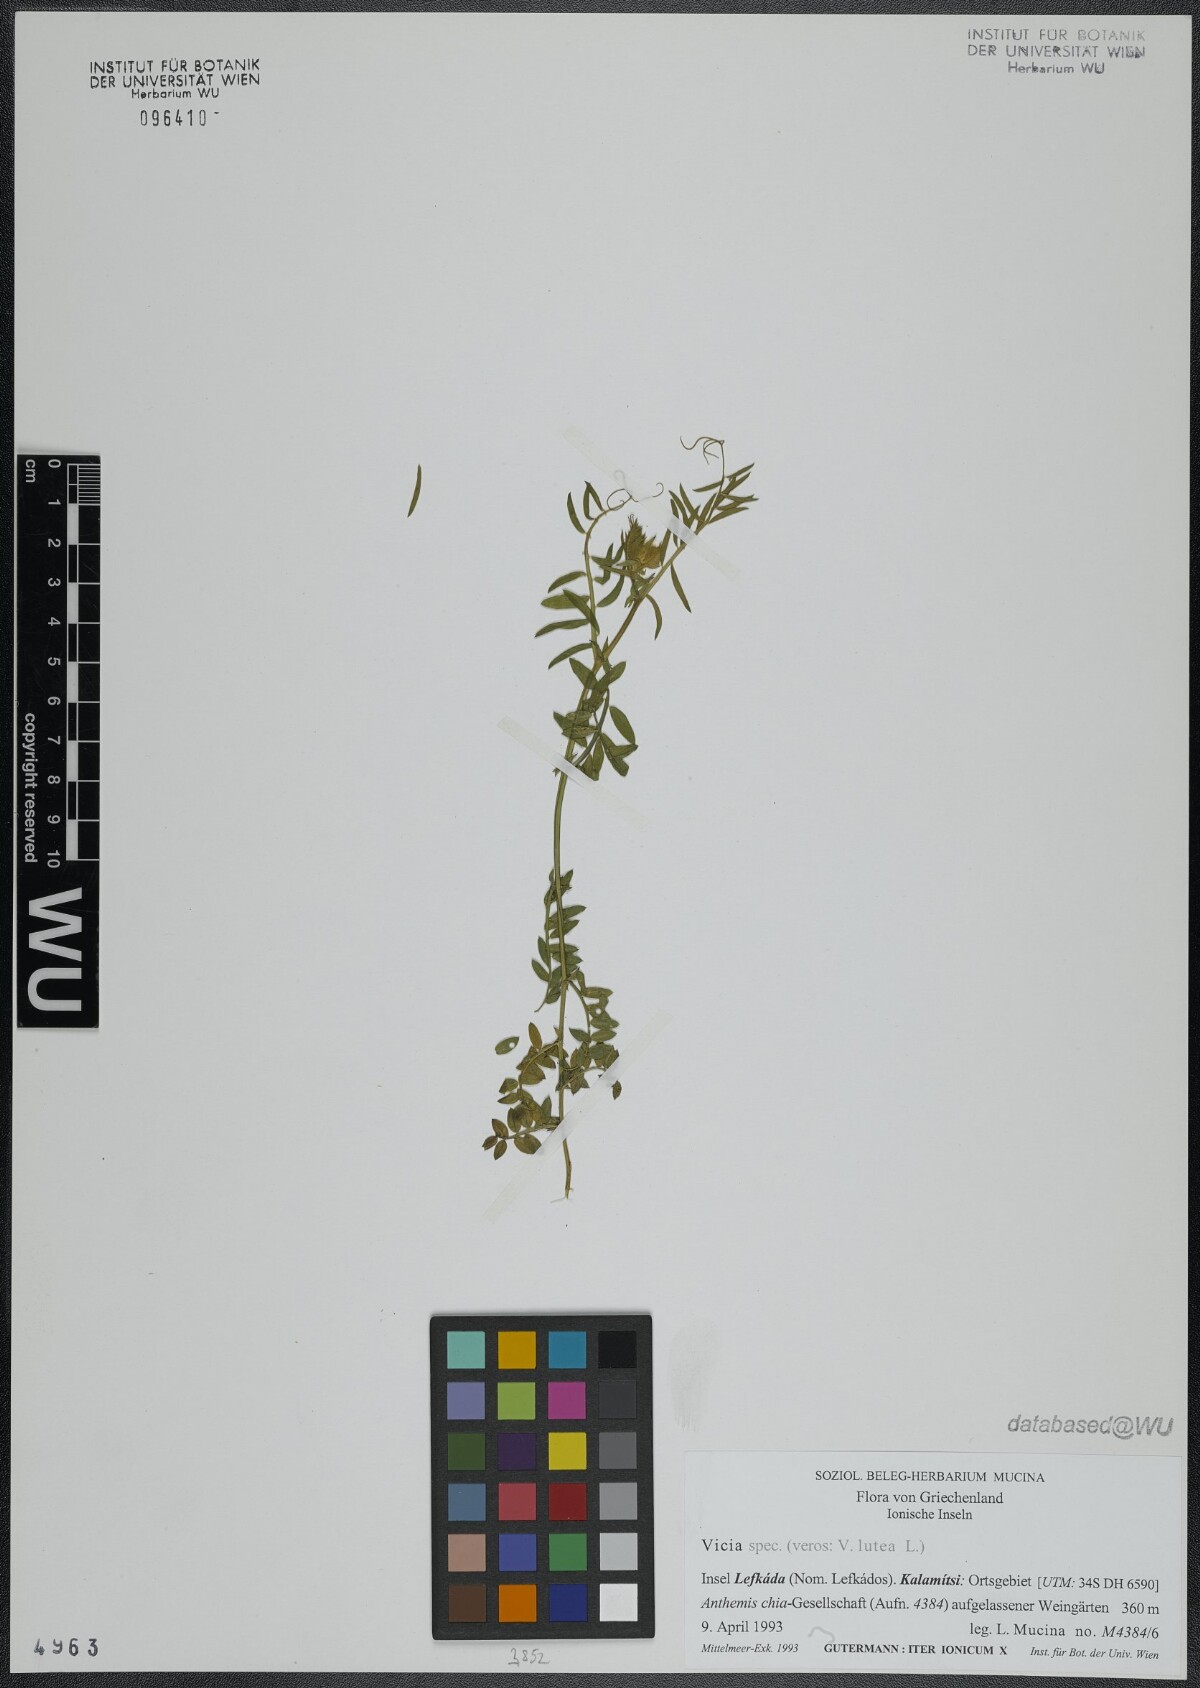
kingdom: Plantae
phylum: Tracheophyta
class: Magnoliopsida
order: Fabales
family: Fabaceae
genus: Vicia
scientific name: Vicia lutea
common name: Smooth yellow vetch
